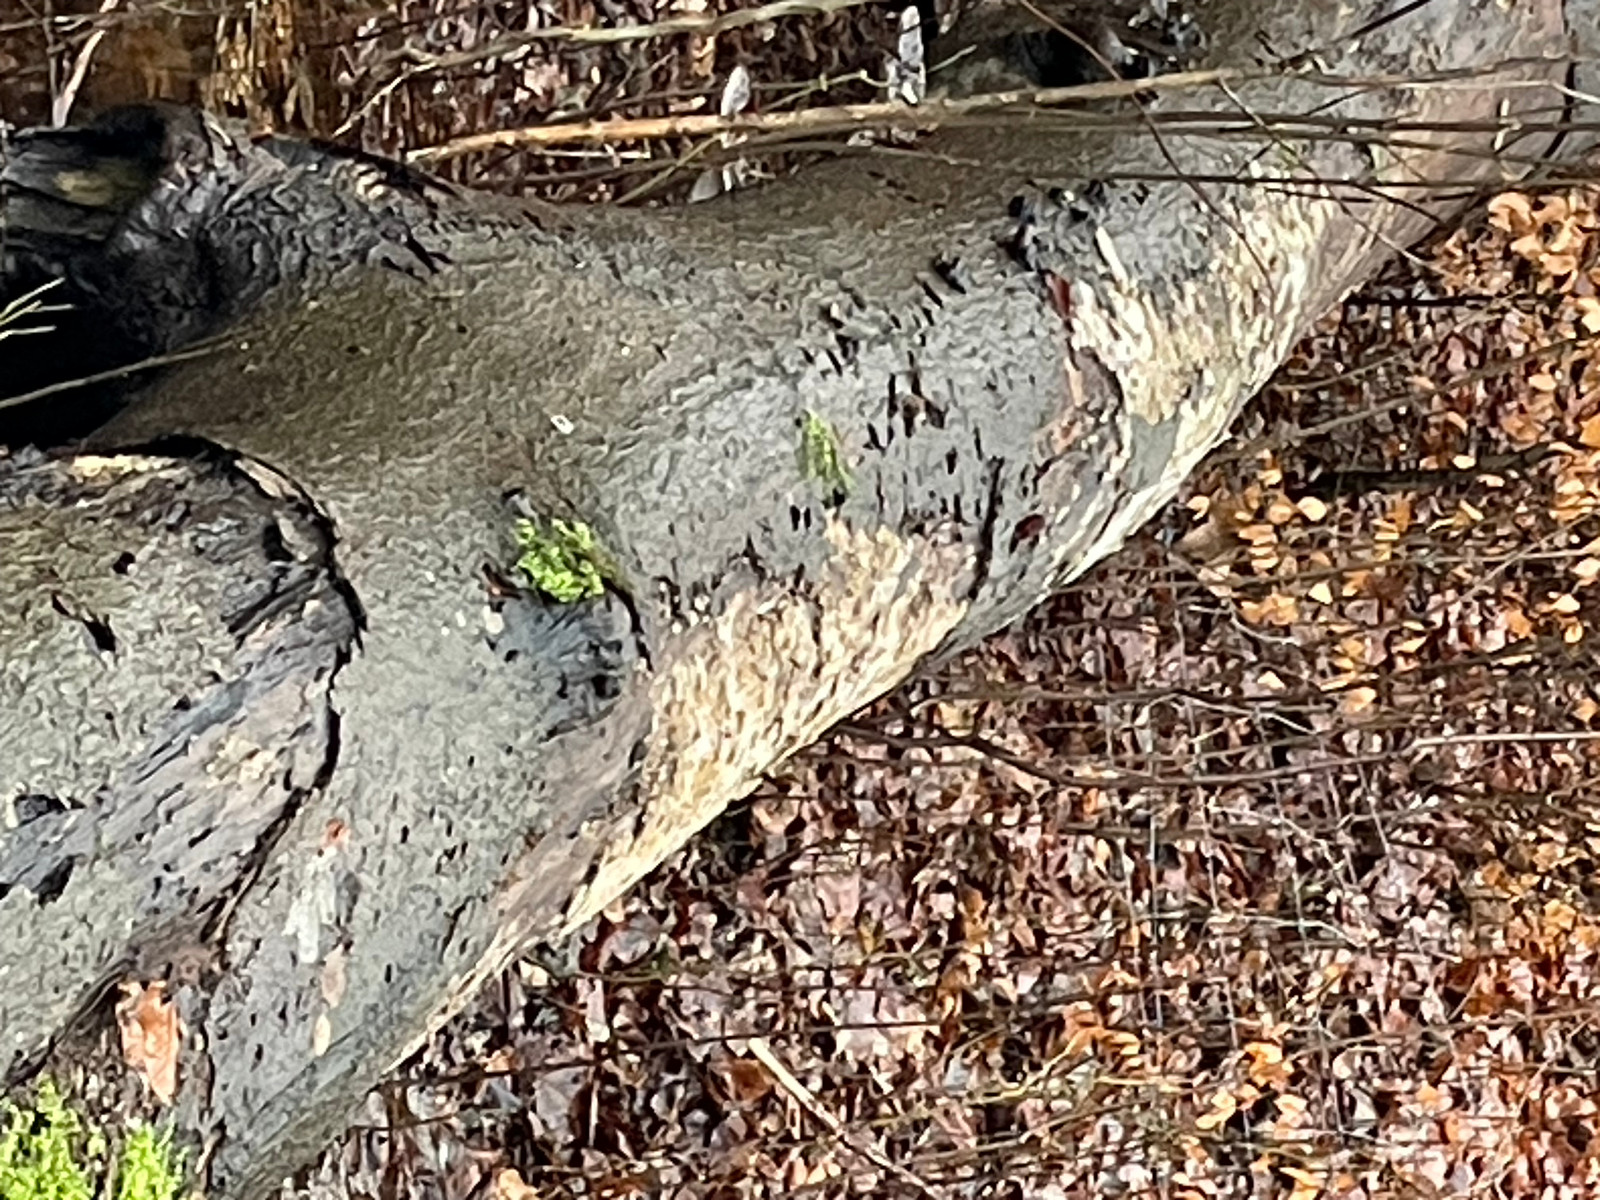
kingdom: Fungi
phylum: Basidiomycota
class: Agaricomycetes
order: Polyporales
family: Ischnodermataceae
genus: Ischnoderma
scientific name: Ischnoderma resinosum
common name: løv-tjæreporesvamp
